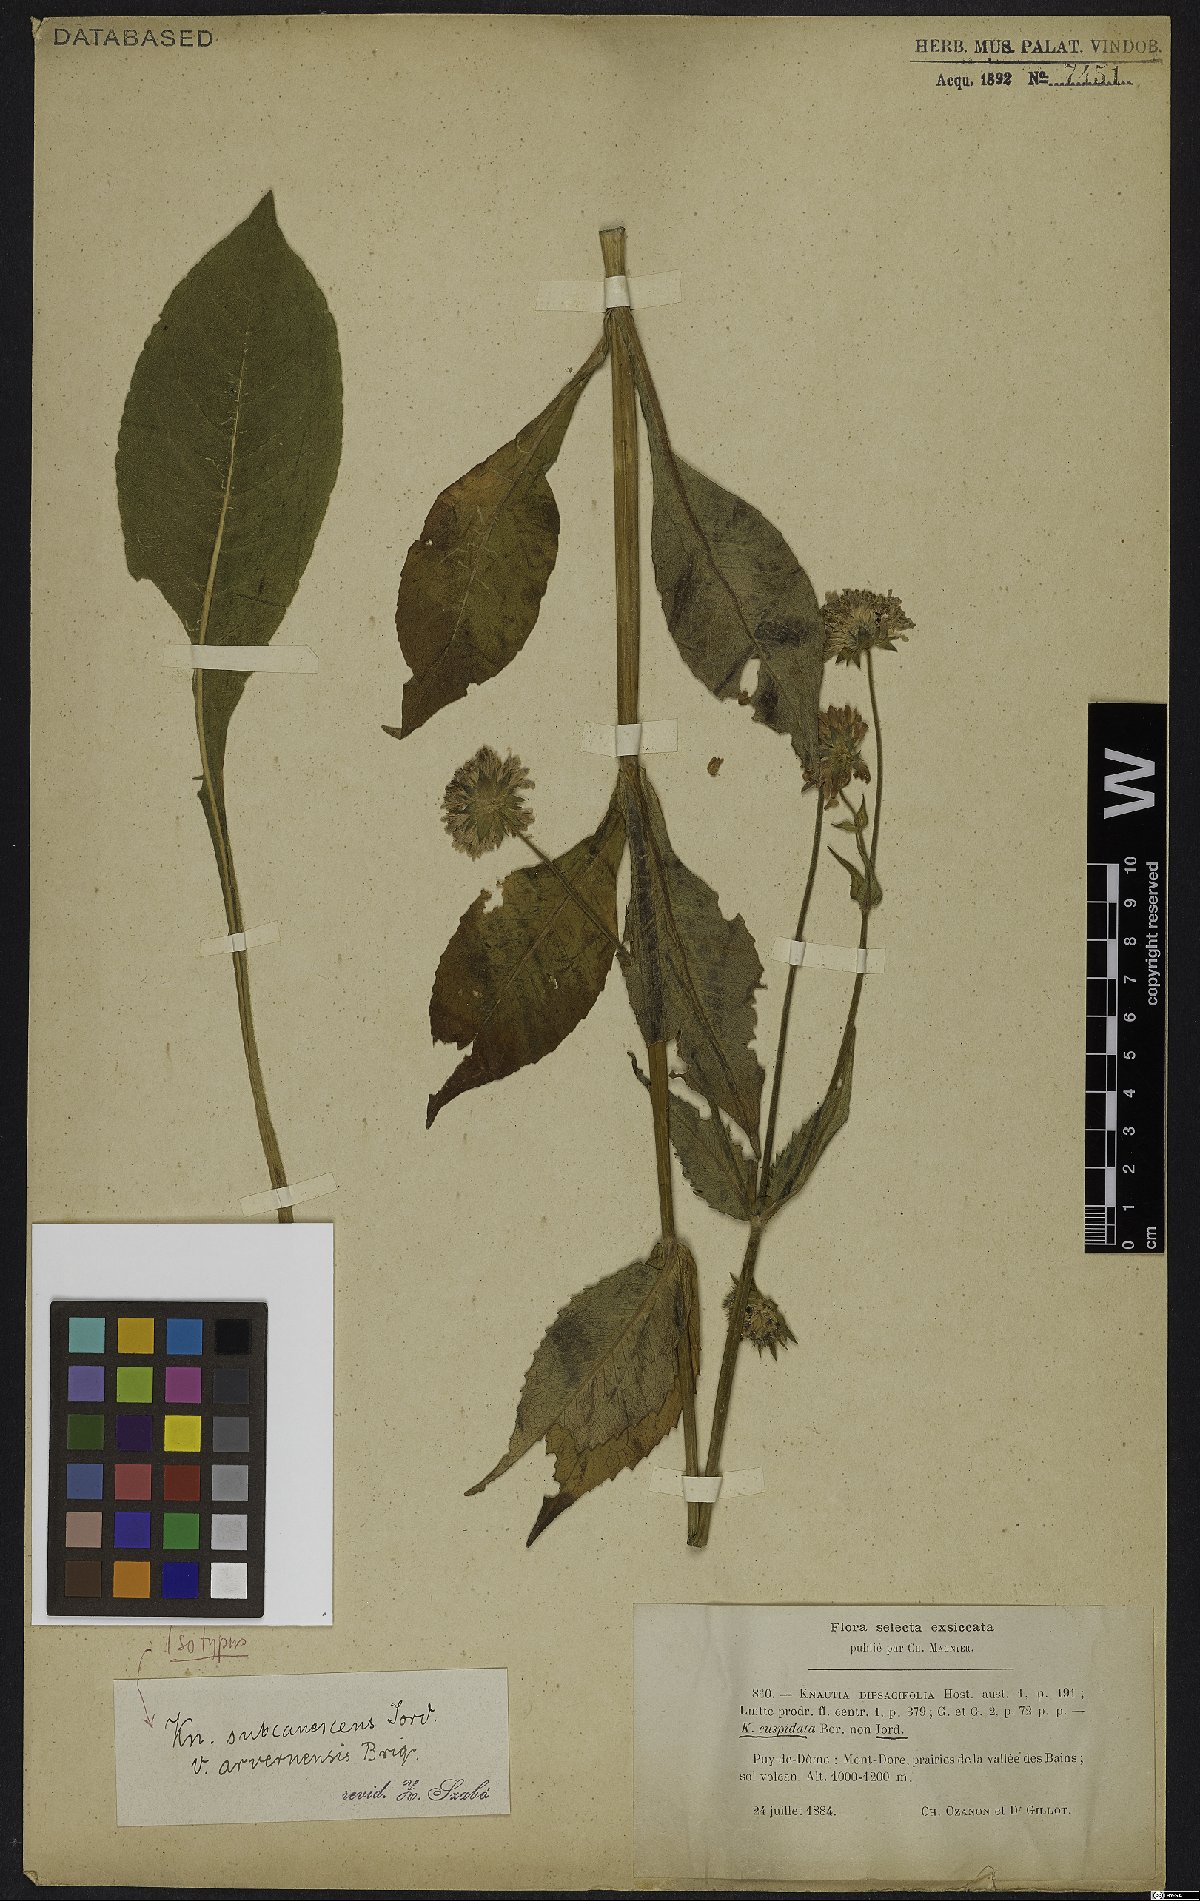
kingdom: Plantae
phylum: Tracheophyta
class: Magnoliopsida
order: Dipsacales
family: Caprifoliaceae
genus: Knautia
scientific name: Knautia nevadensis
